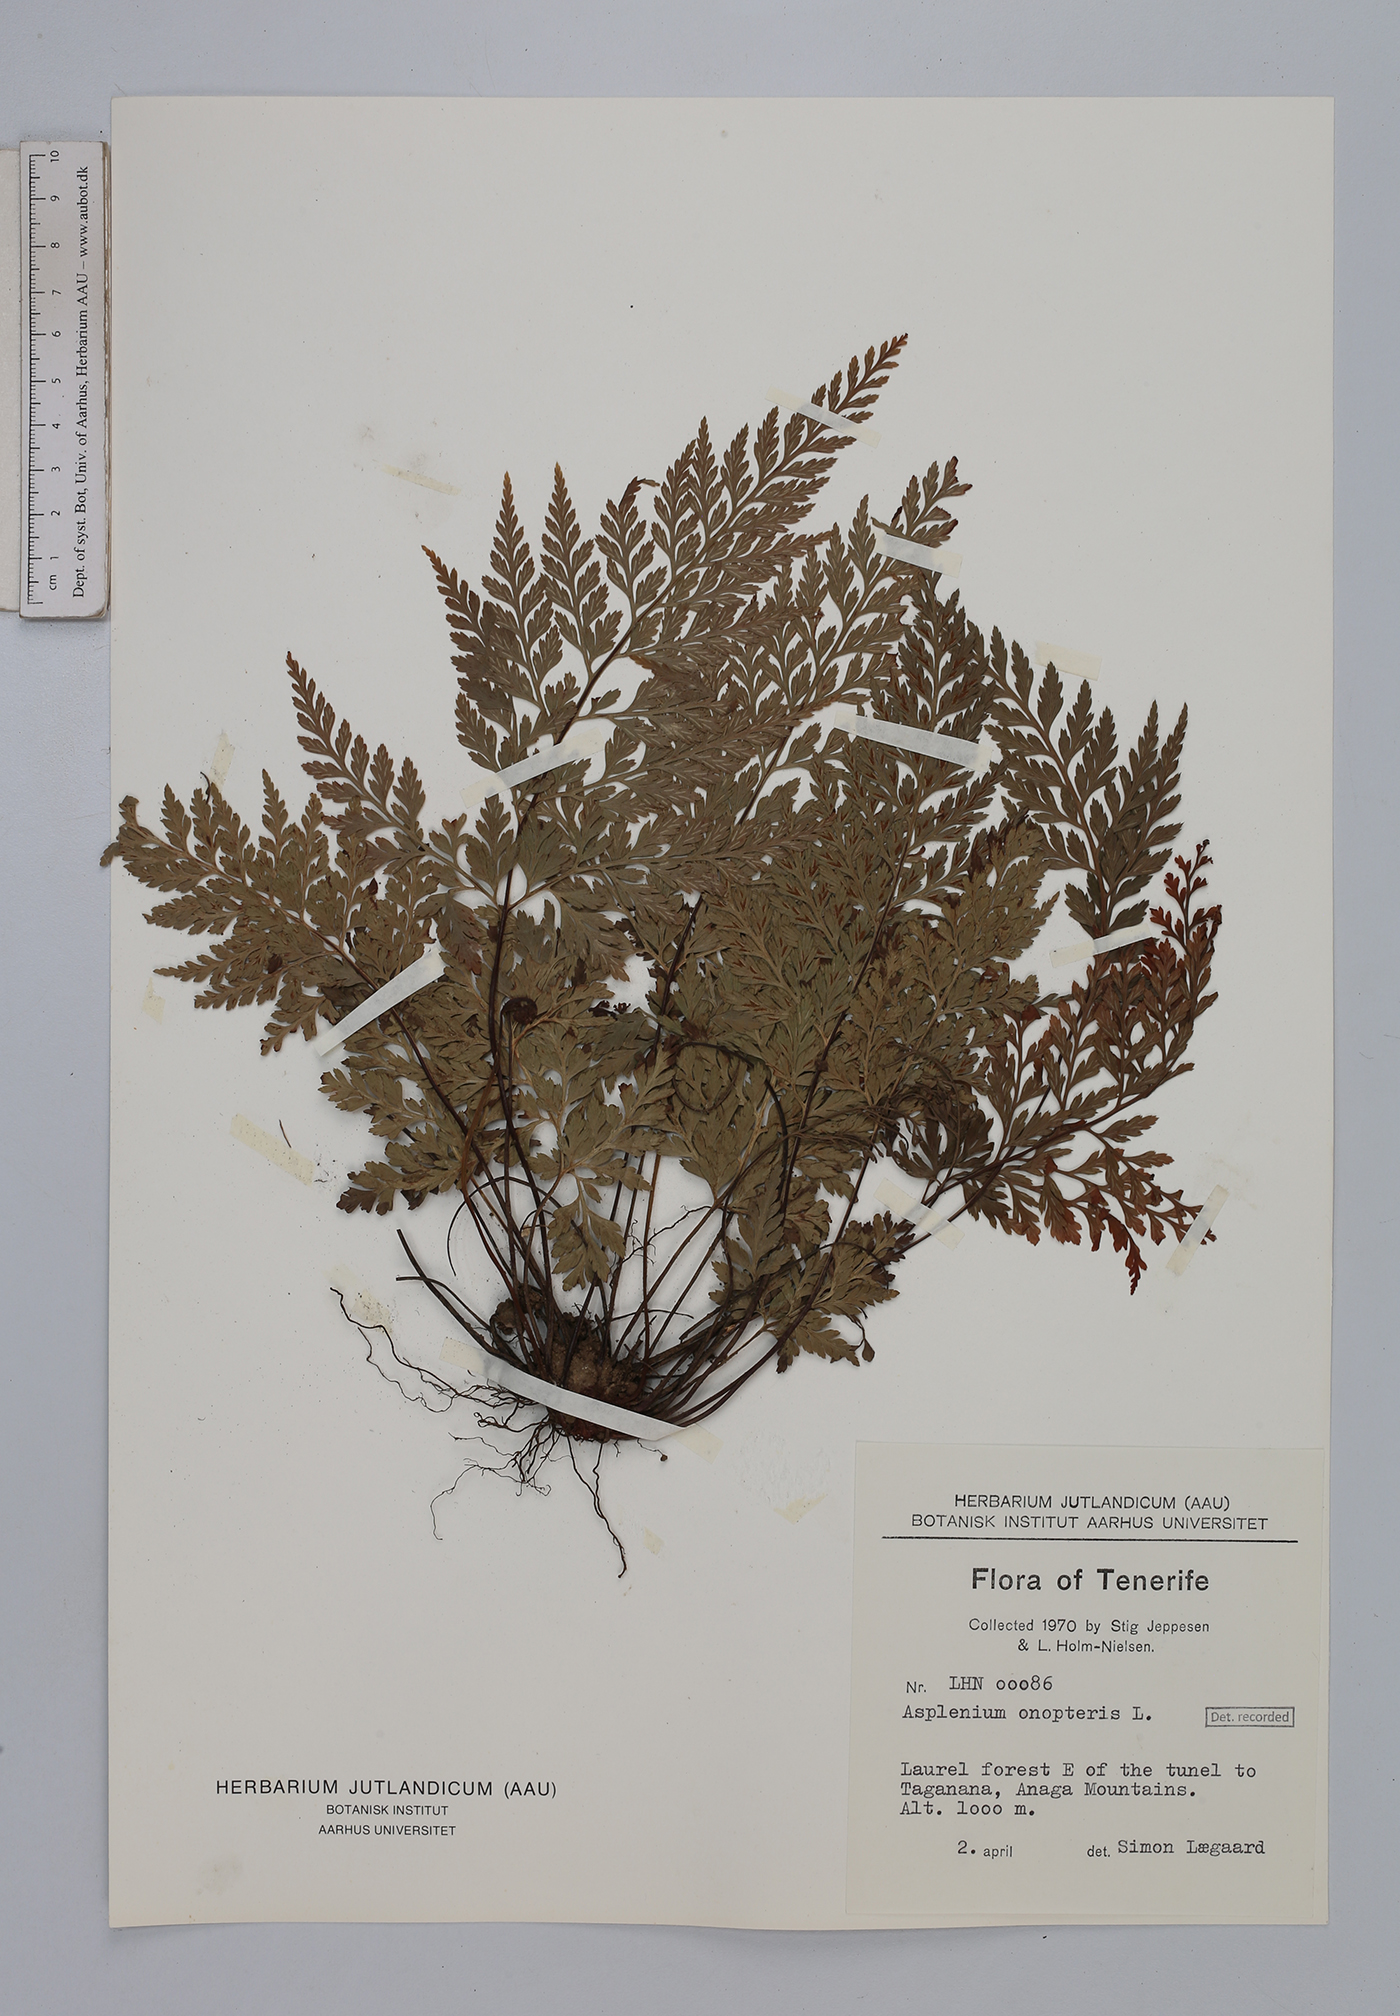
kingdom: Plantae
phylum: Tracheophyta
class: Polypodiopsida
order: Polypodiales
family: Aspleniaceae
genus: Asplenium
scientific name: Asplenium onopteris
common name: Irish spleenwort
